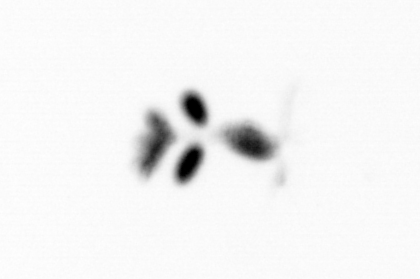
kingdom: Animalia
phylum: Arthropoda
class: Copepoda
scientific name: Copepoda
